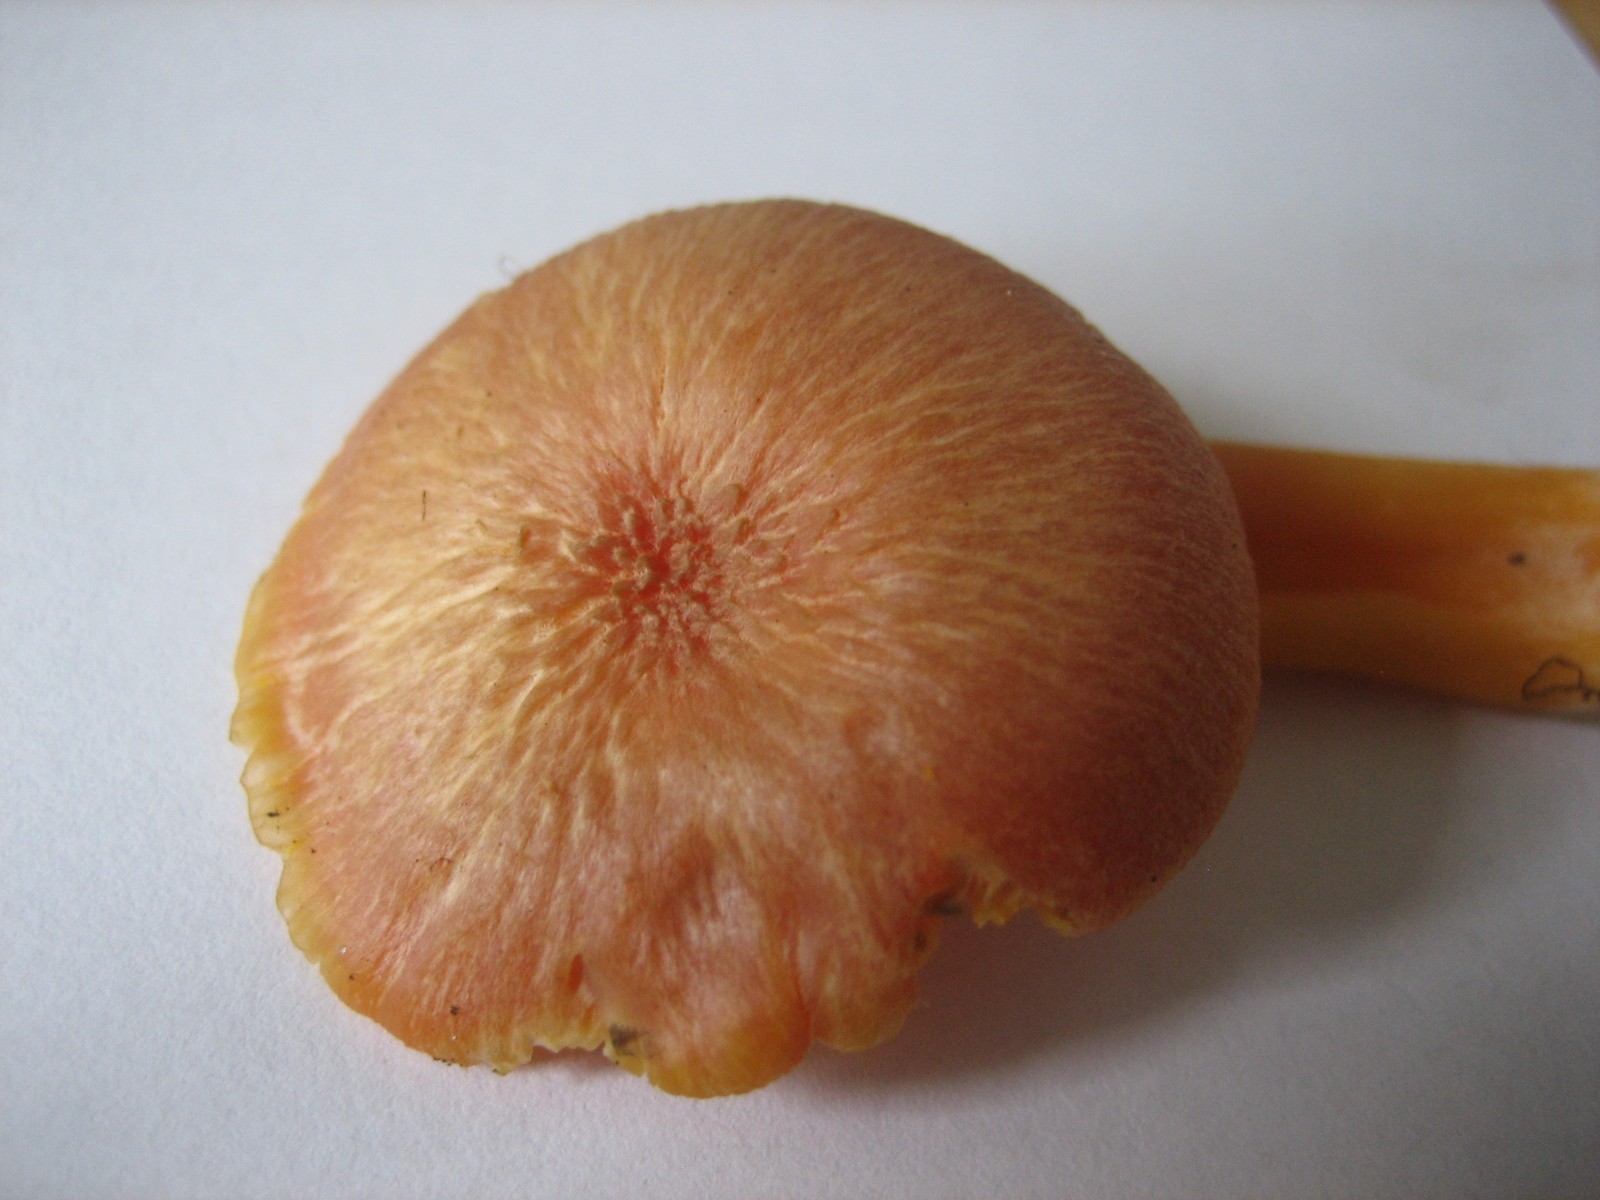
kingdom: Fungi
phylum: Basidiomycota
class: Agaricomycetes
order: Agaricales
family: Hygrophoraceae
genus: Hygrocybe
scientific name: Hygrocybe reidii
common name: honning-vokshat
